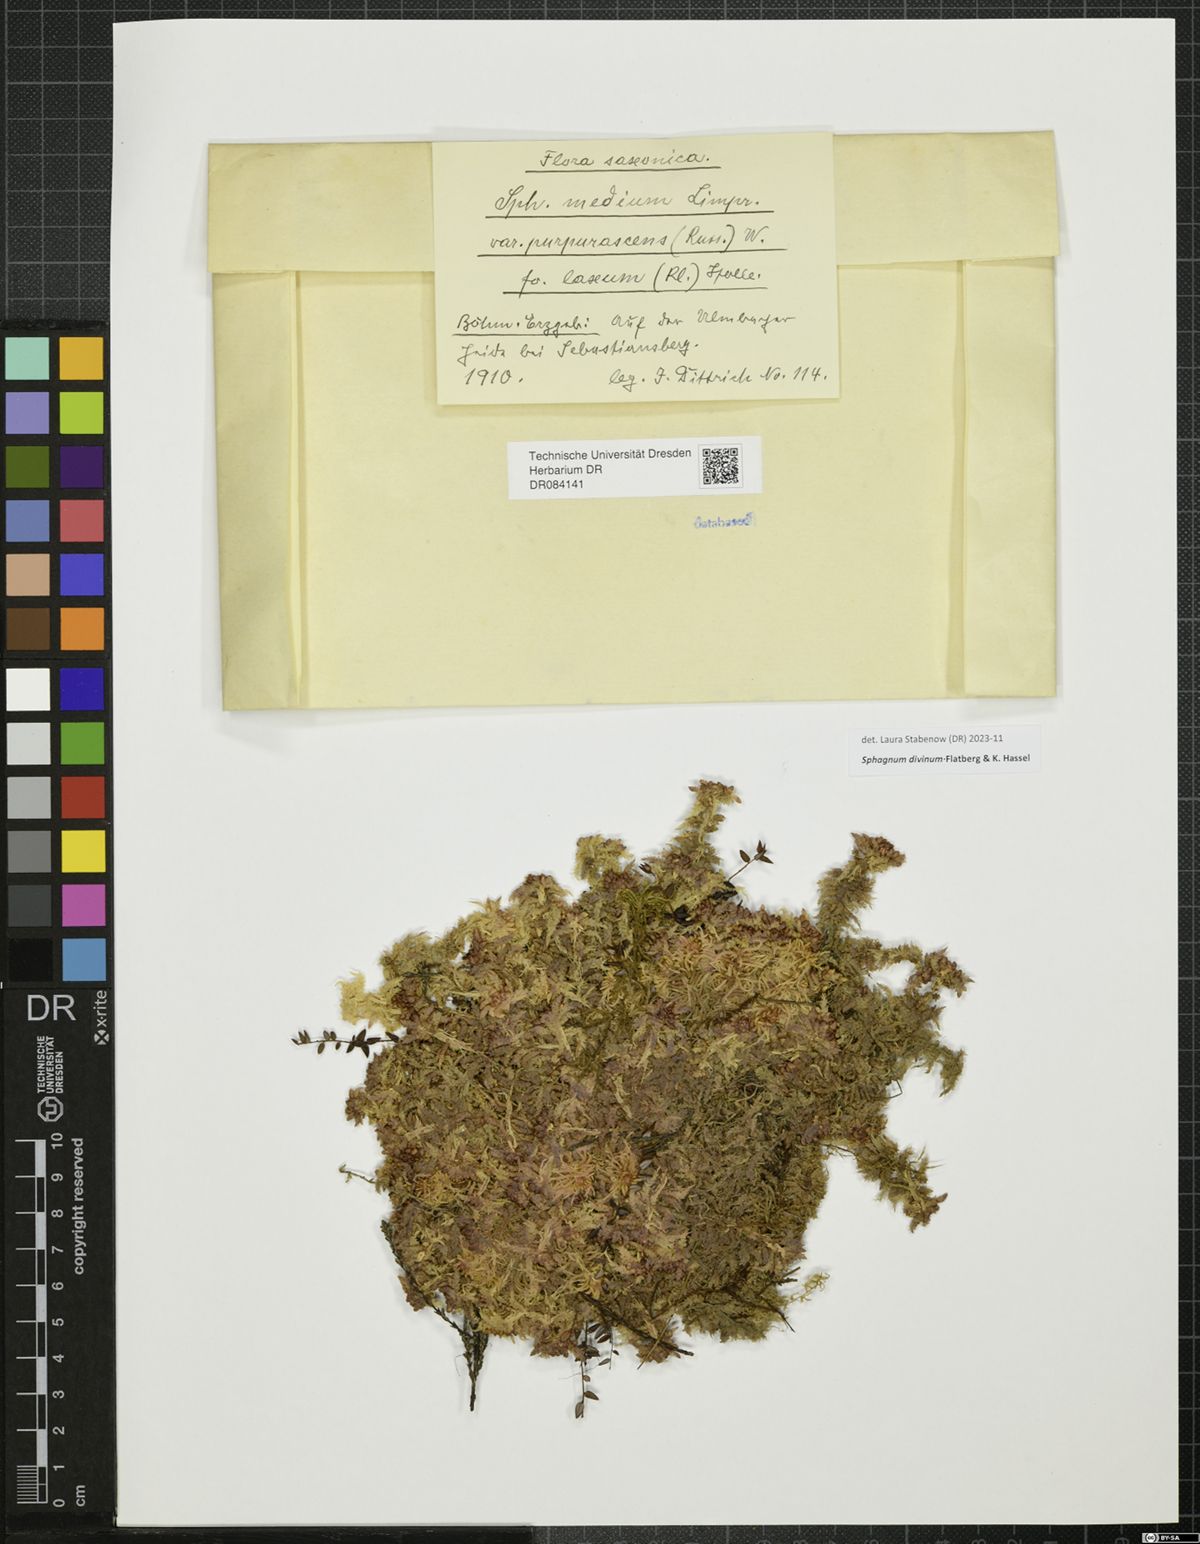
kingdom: Plantae
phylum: Bryophyta
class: Sphagnopsida
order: Sphagnales
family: Sphagnaceae
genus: Sphagnum
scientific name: Sphagnum divinum
